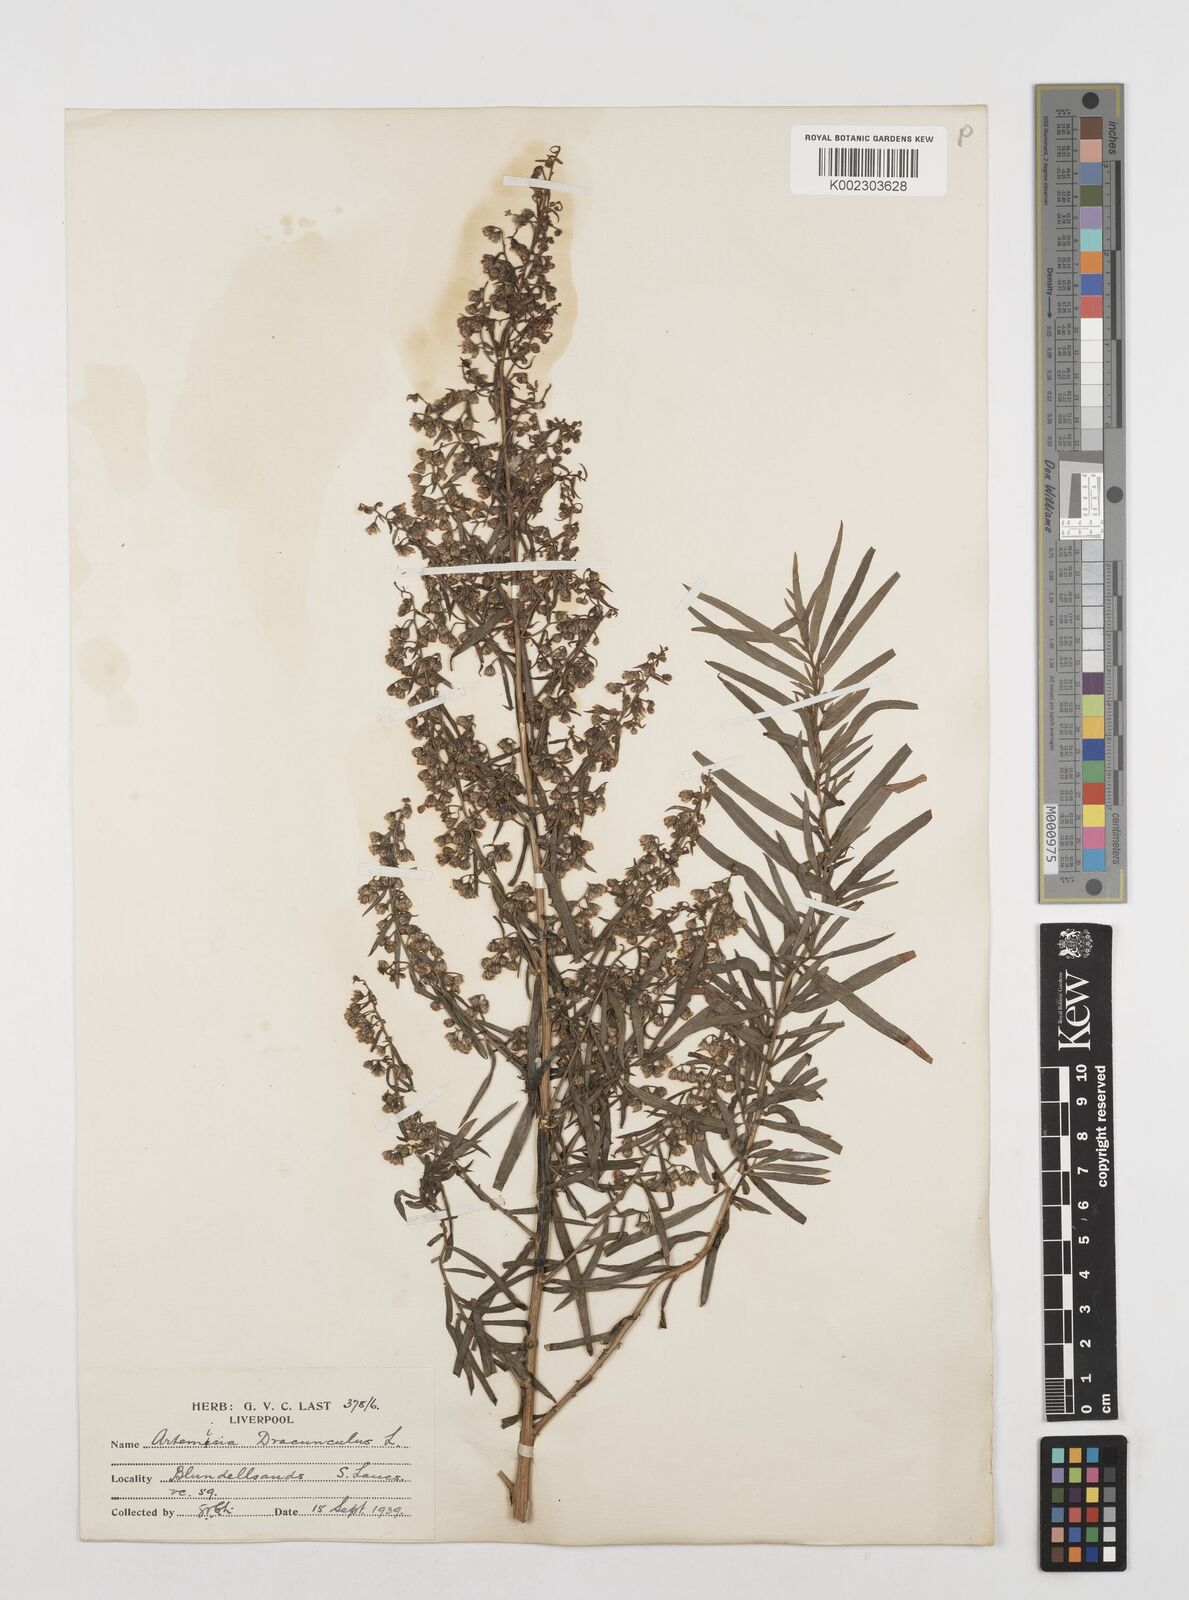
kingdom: Plantae
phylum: Tracheophyta
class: Magnoliopsida
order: Asterales
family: Asteraceae
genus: Artemisia
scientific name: Artemisia dracunculus
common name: Tarragon
